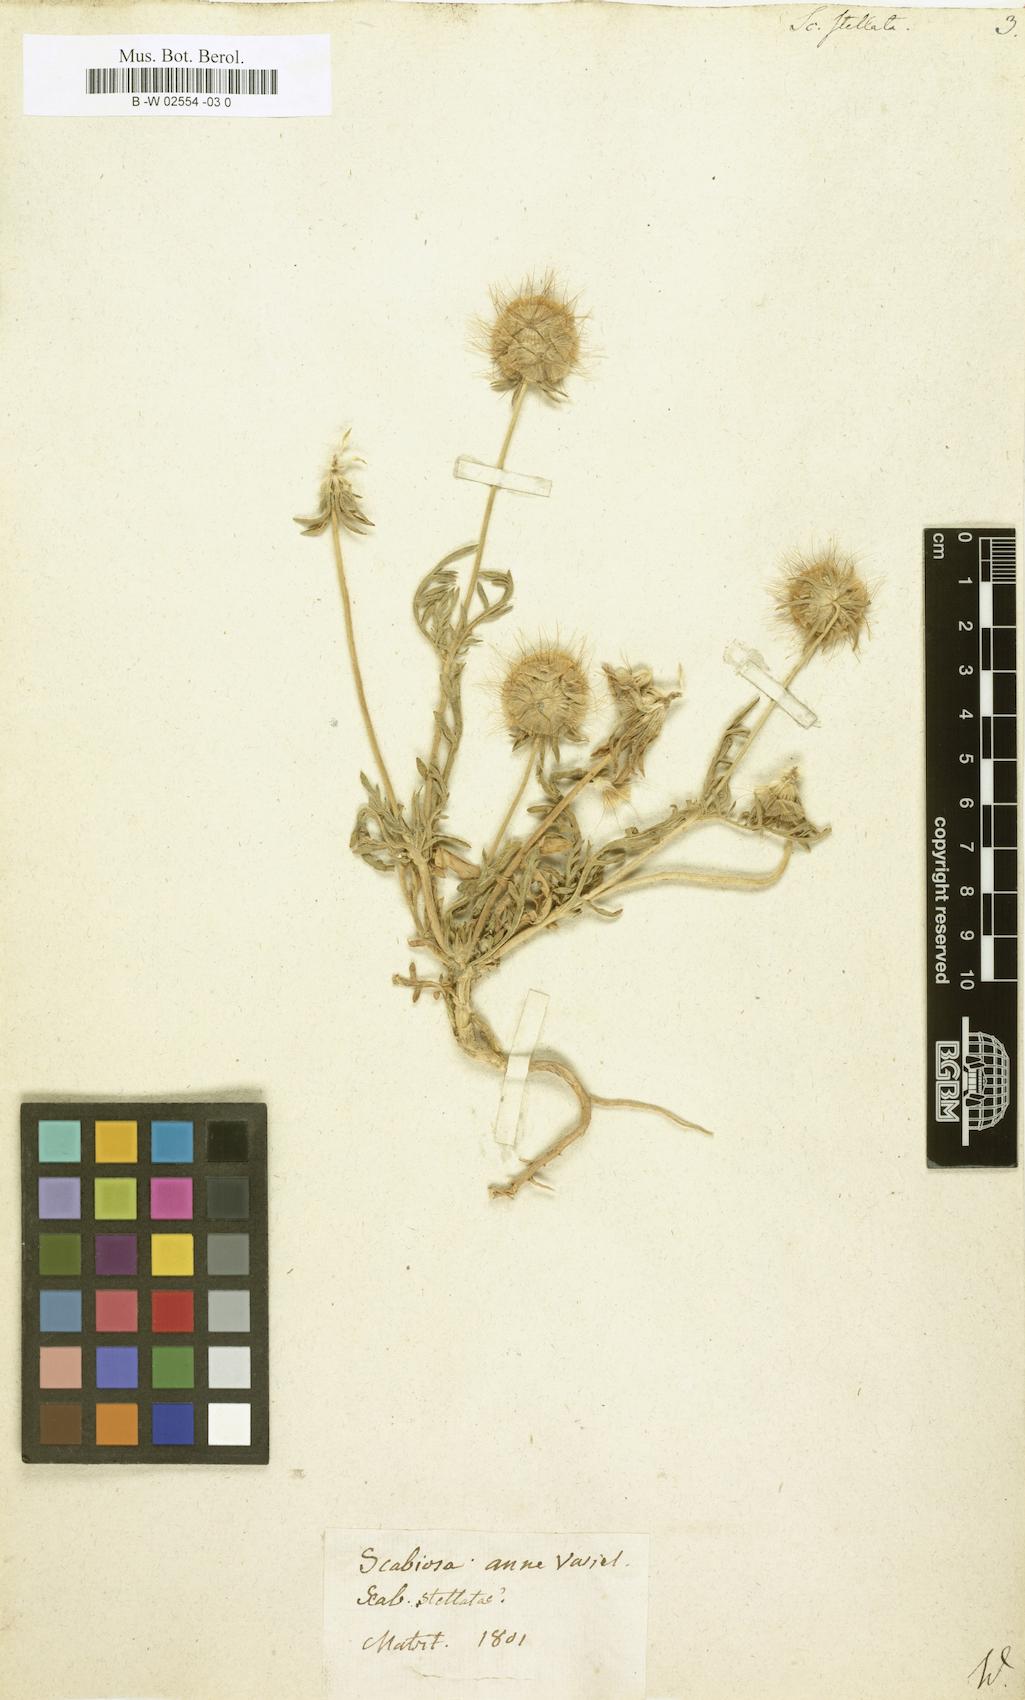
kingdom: Plantae
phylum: Tracheophyta
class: Magnoliopsida
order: Dipsacales
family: Caprifoliaceae
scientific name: Caprifoliaceae
